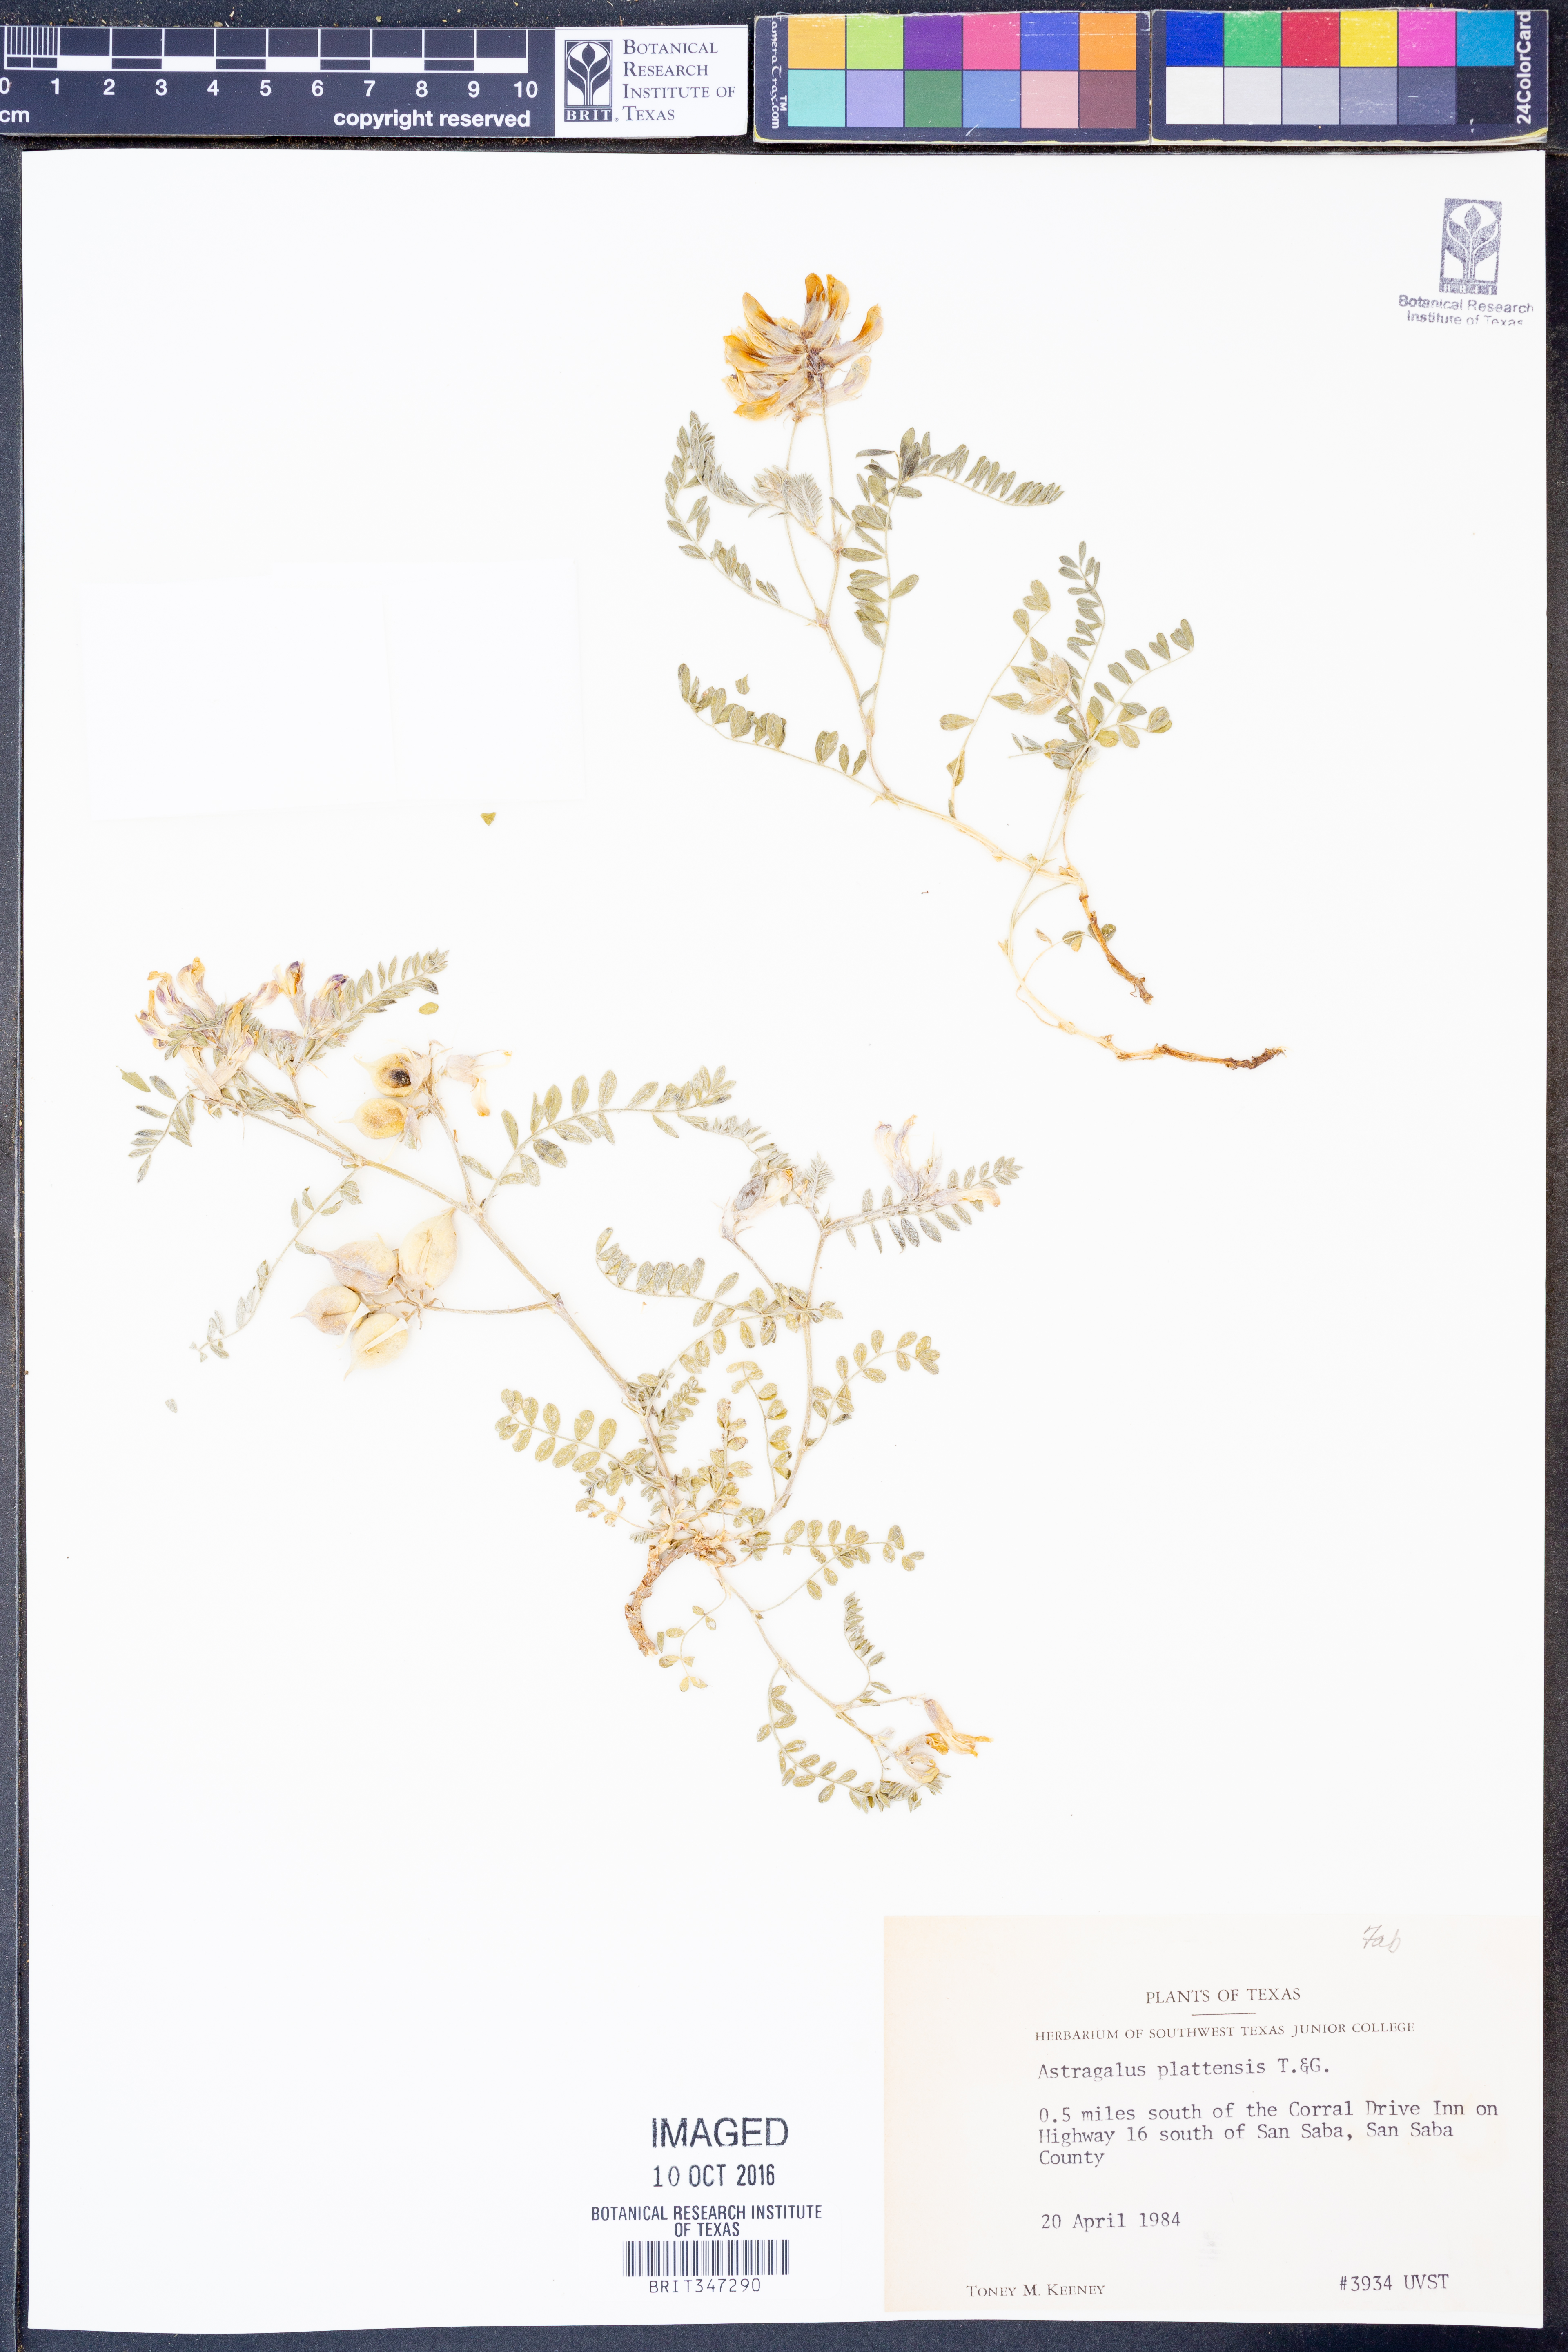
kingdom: Plantae
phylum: Tracheophyta
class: Magnoliopsida
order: Fabales
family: Fabaceae
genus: Astragalus
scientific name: Astragalus plattensis
